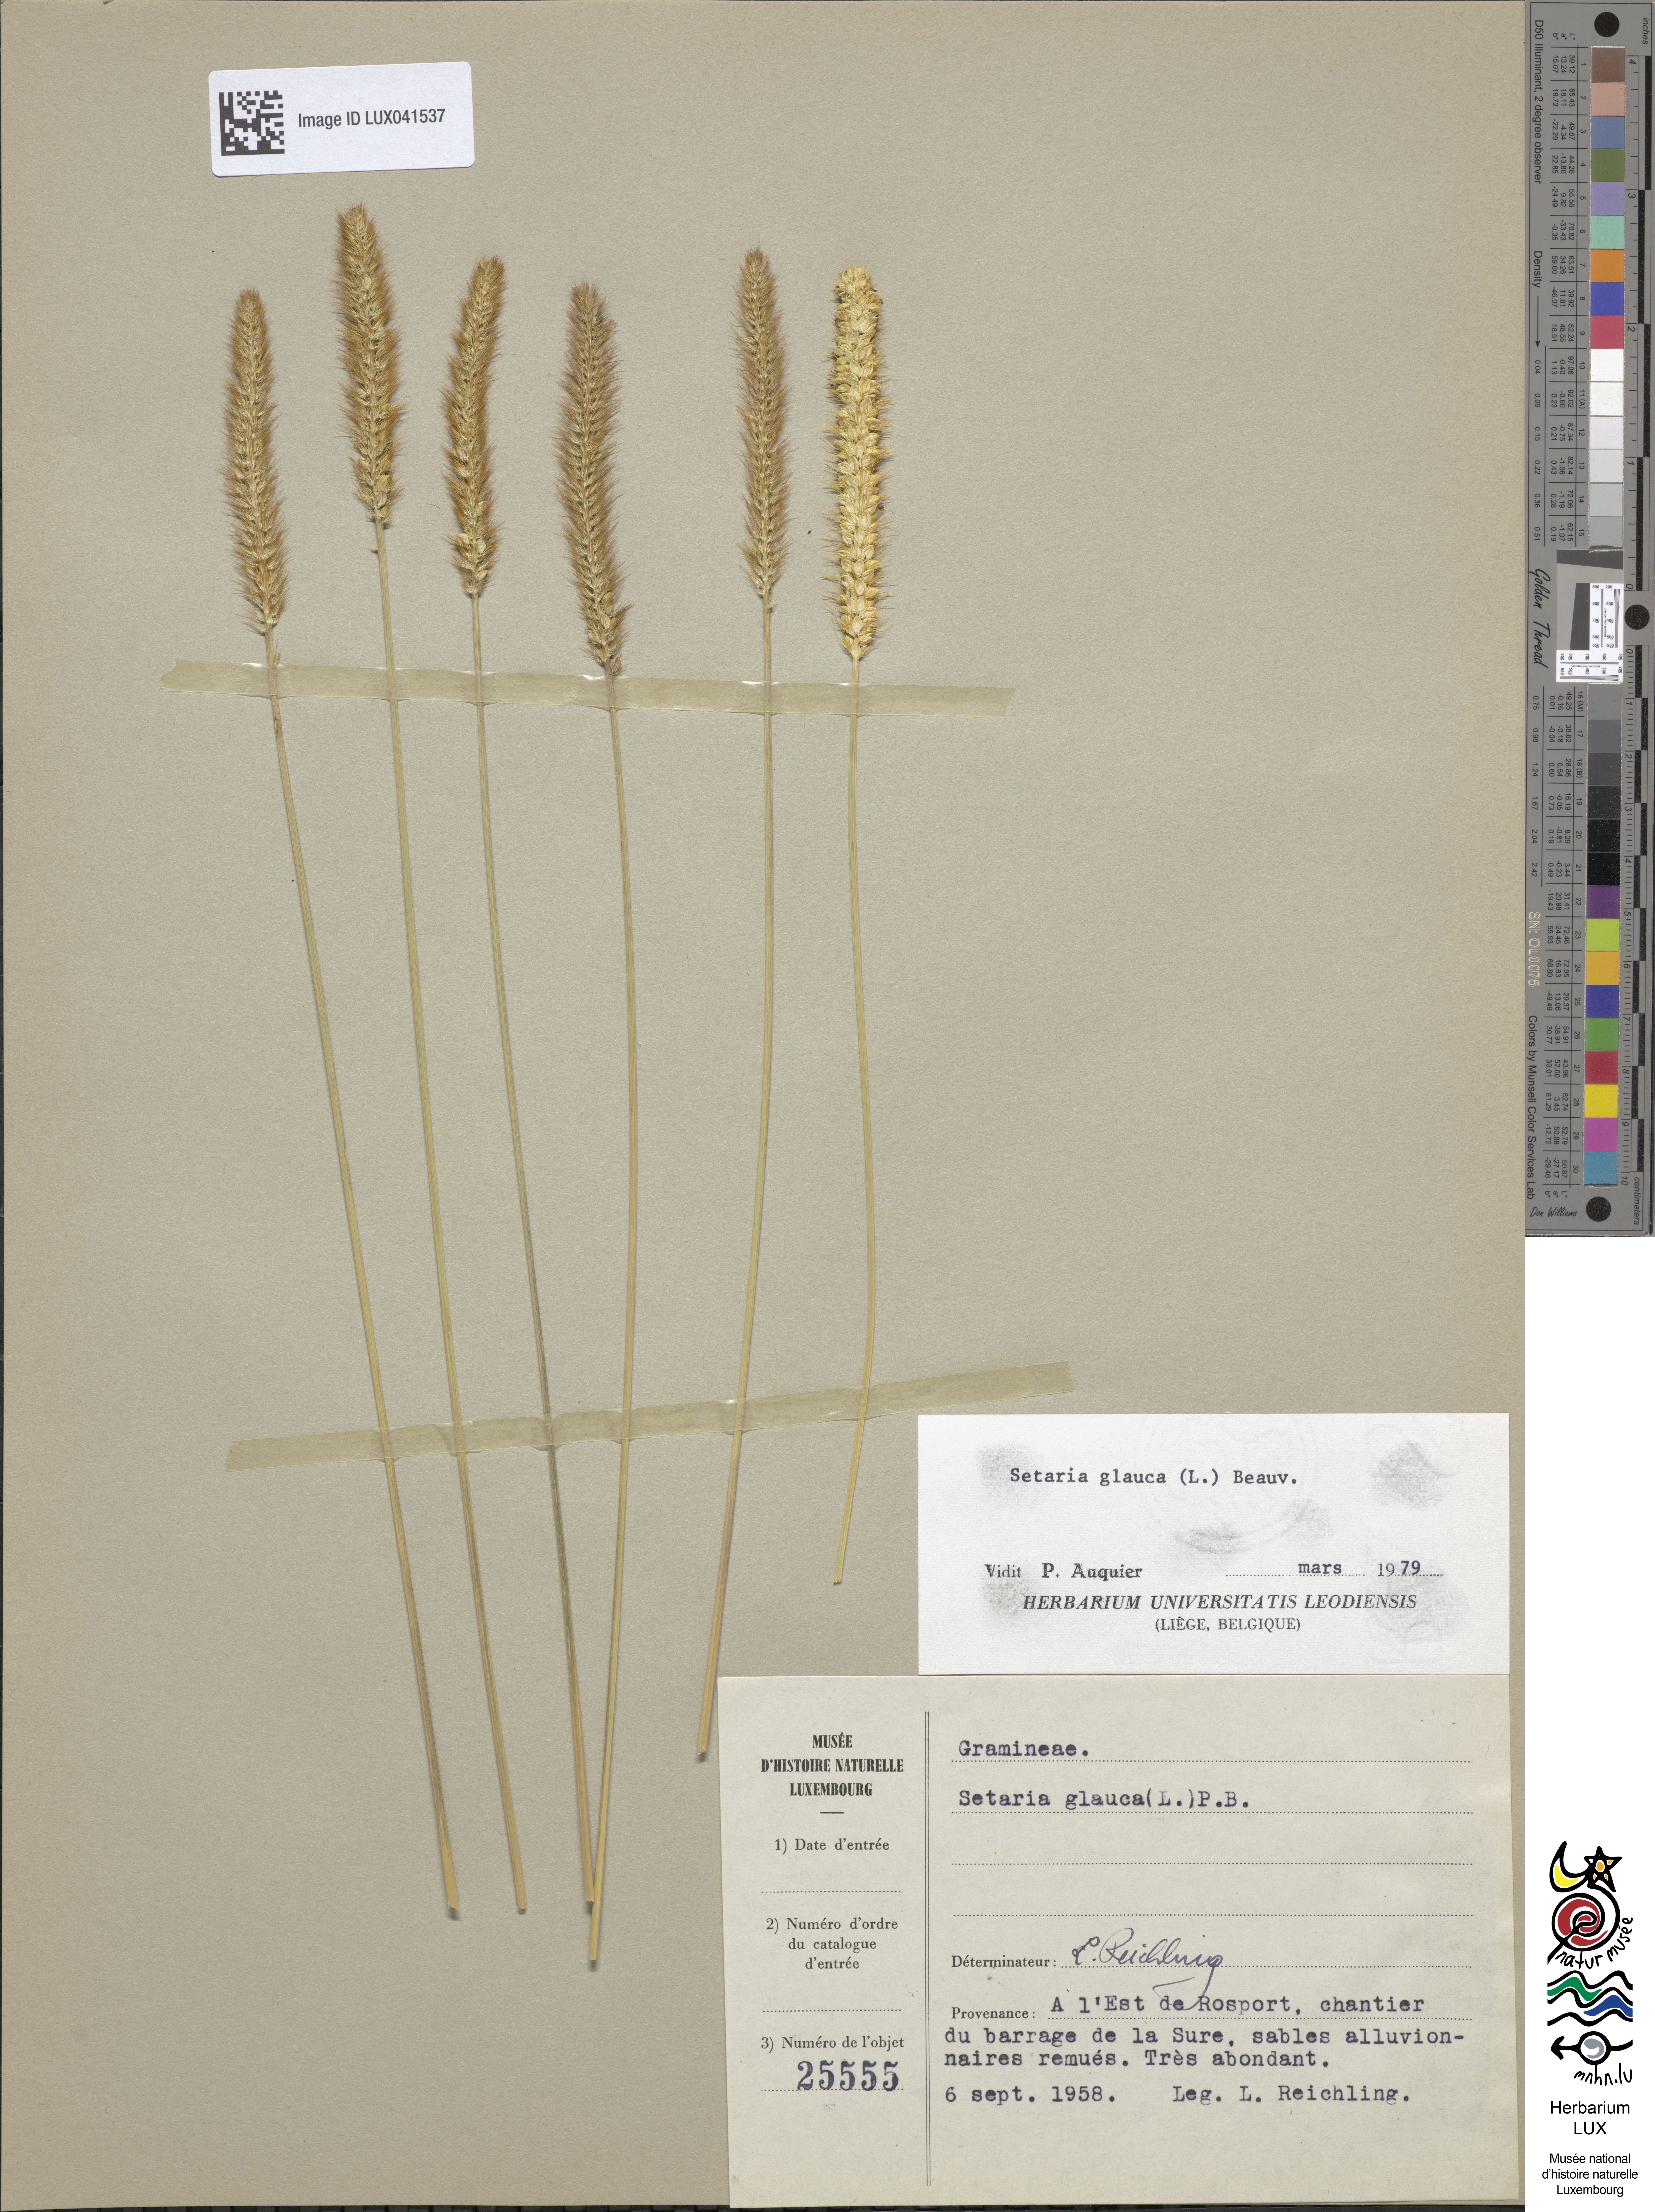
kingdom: Plantae
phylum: Tracheophyta
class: Liliopsida
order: Poales
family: Poaceae
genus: Cenchrus
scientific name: Cenchrus americanus
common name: Pearl millet
